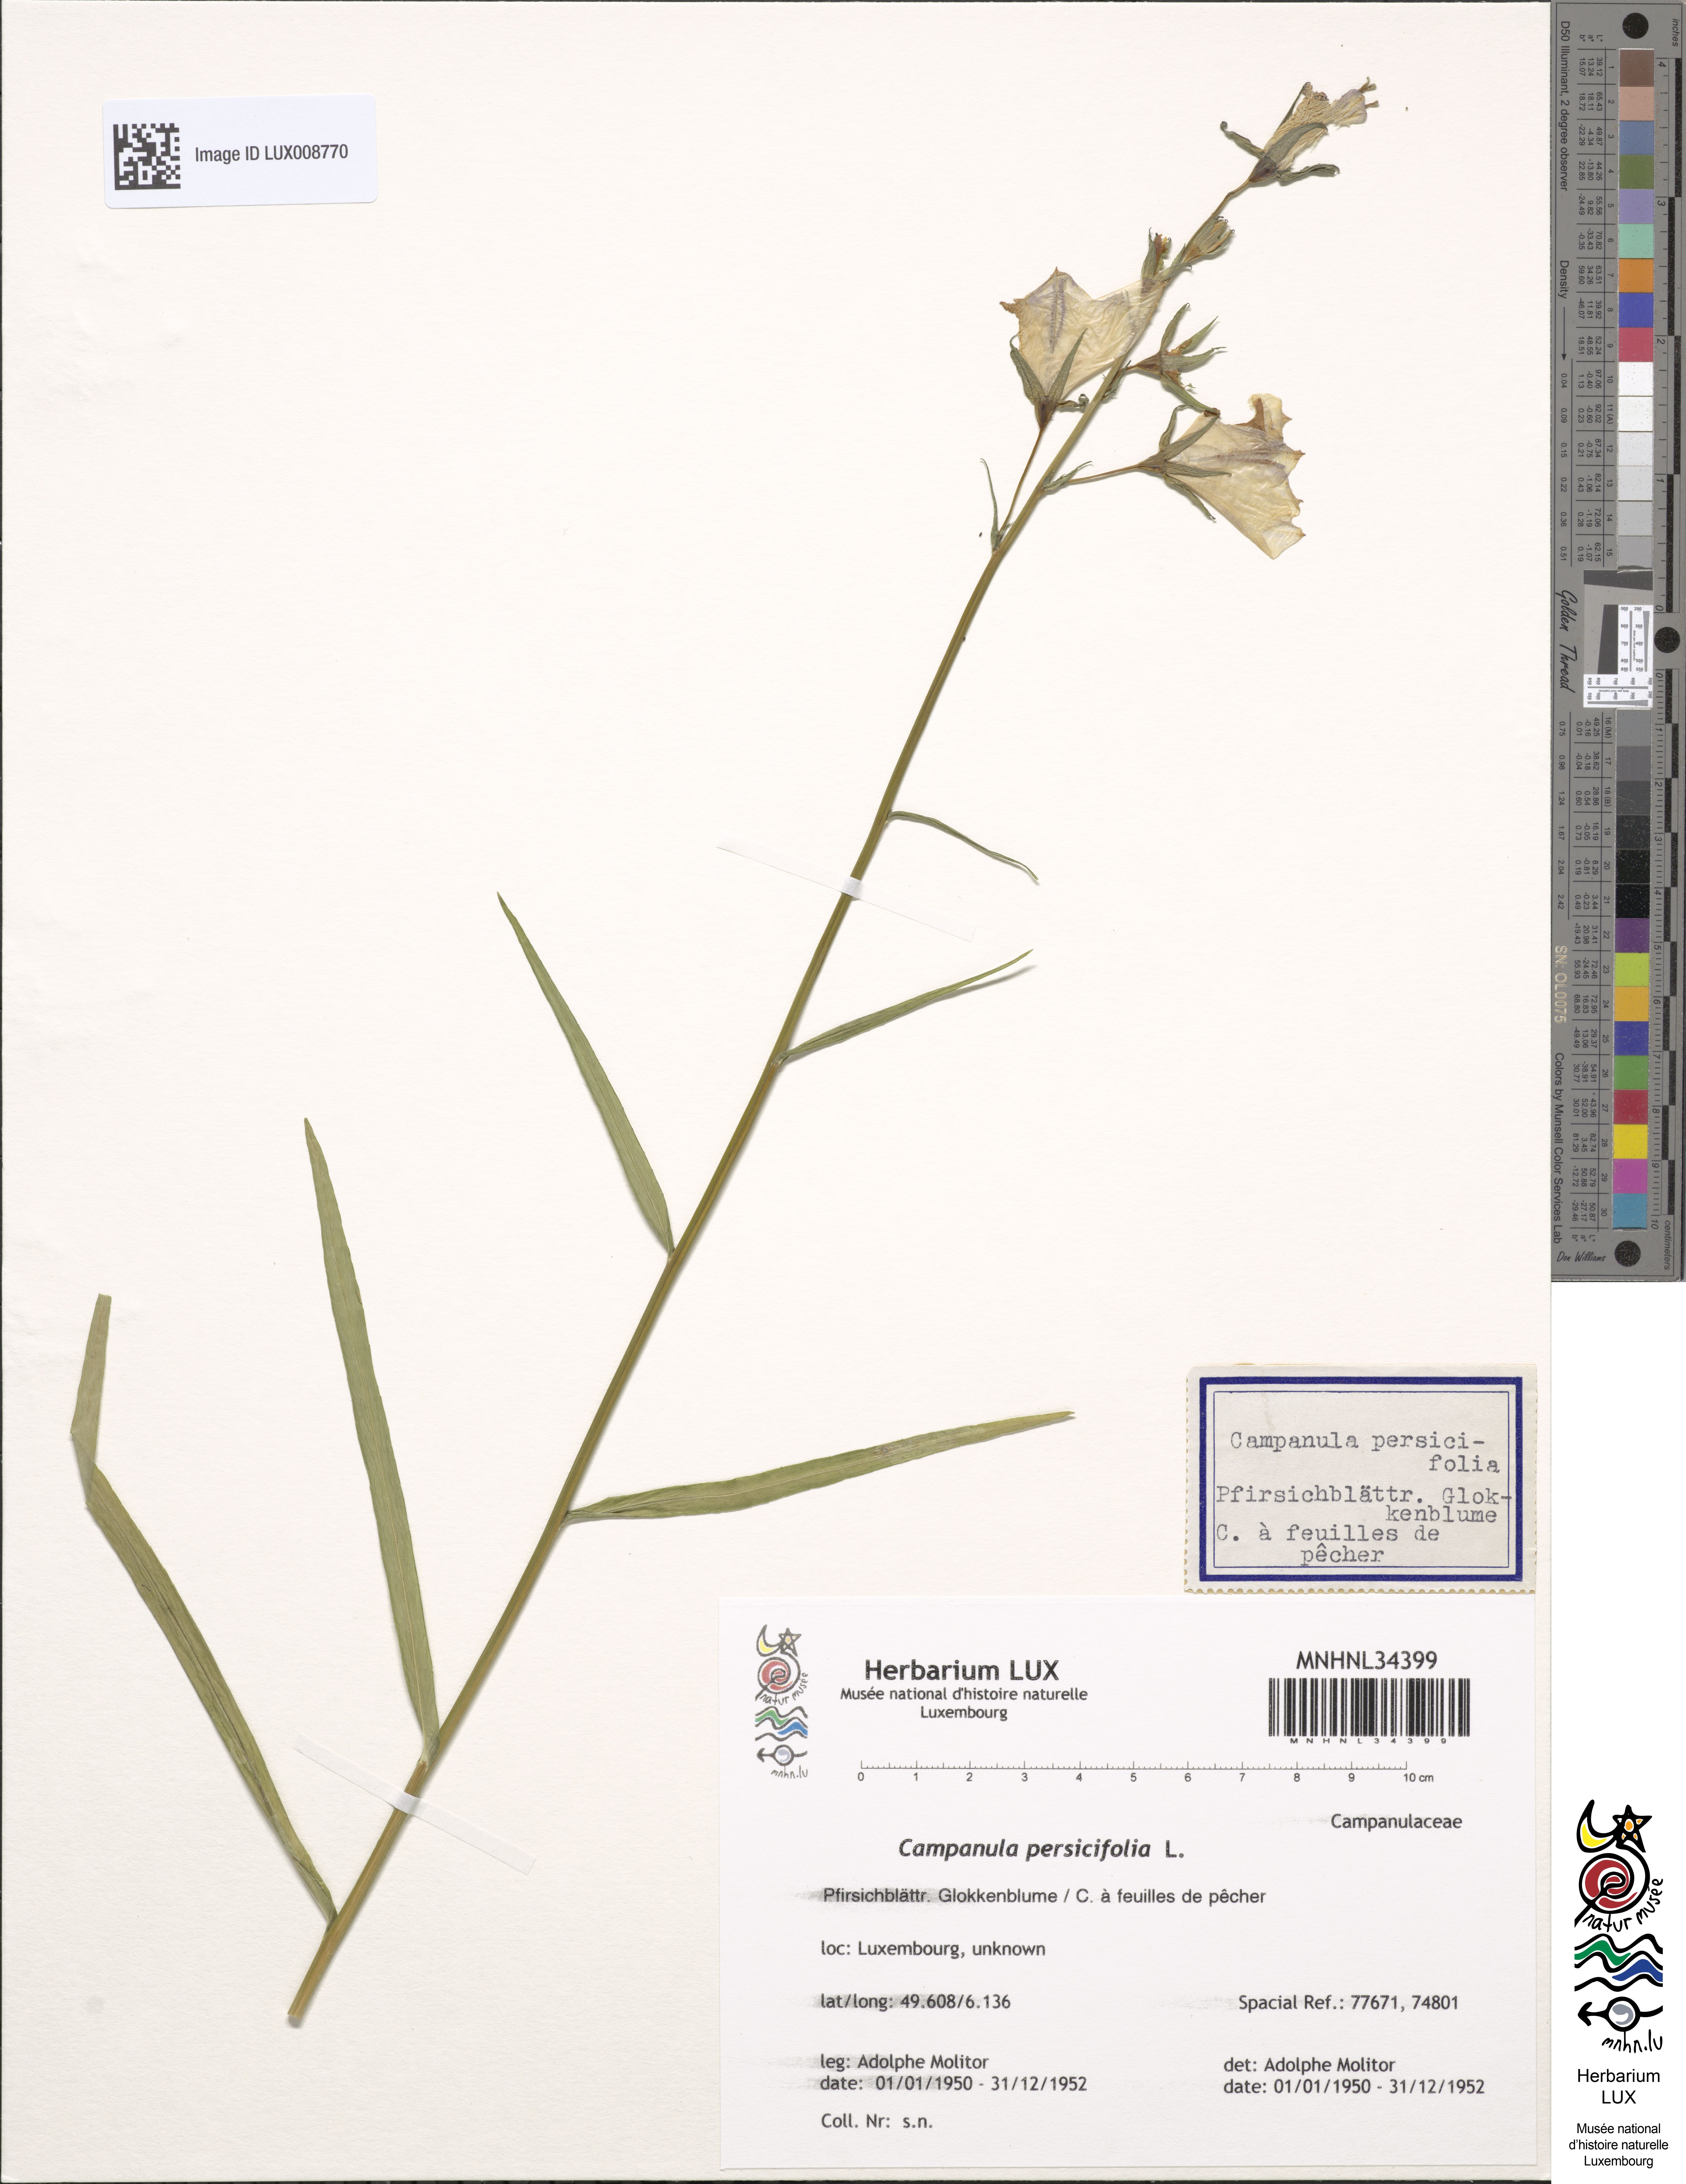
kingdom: Plantae
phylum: Tracheophyta
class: Magnoliopsida
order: Asterales
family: Campanulaceae
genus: Campanula
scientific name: Campanula persicifolia
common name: Peach-leaved bellflower
